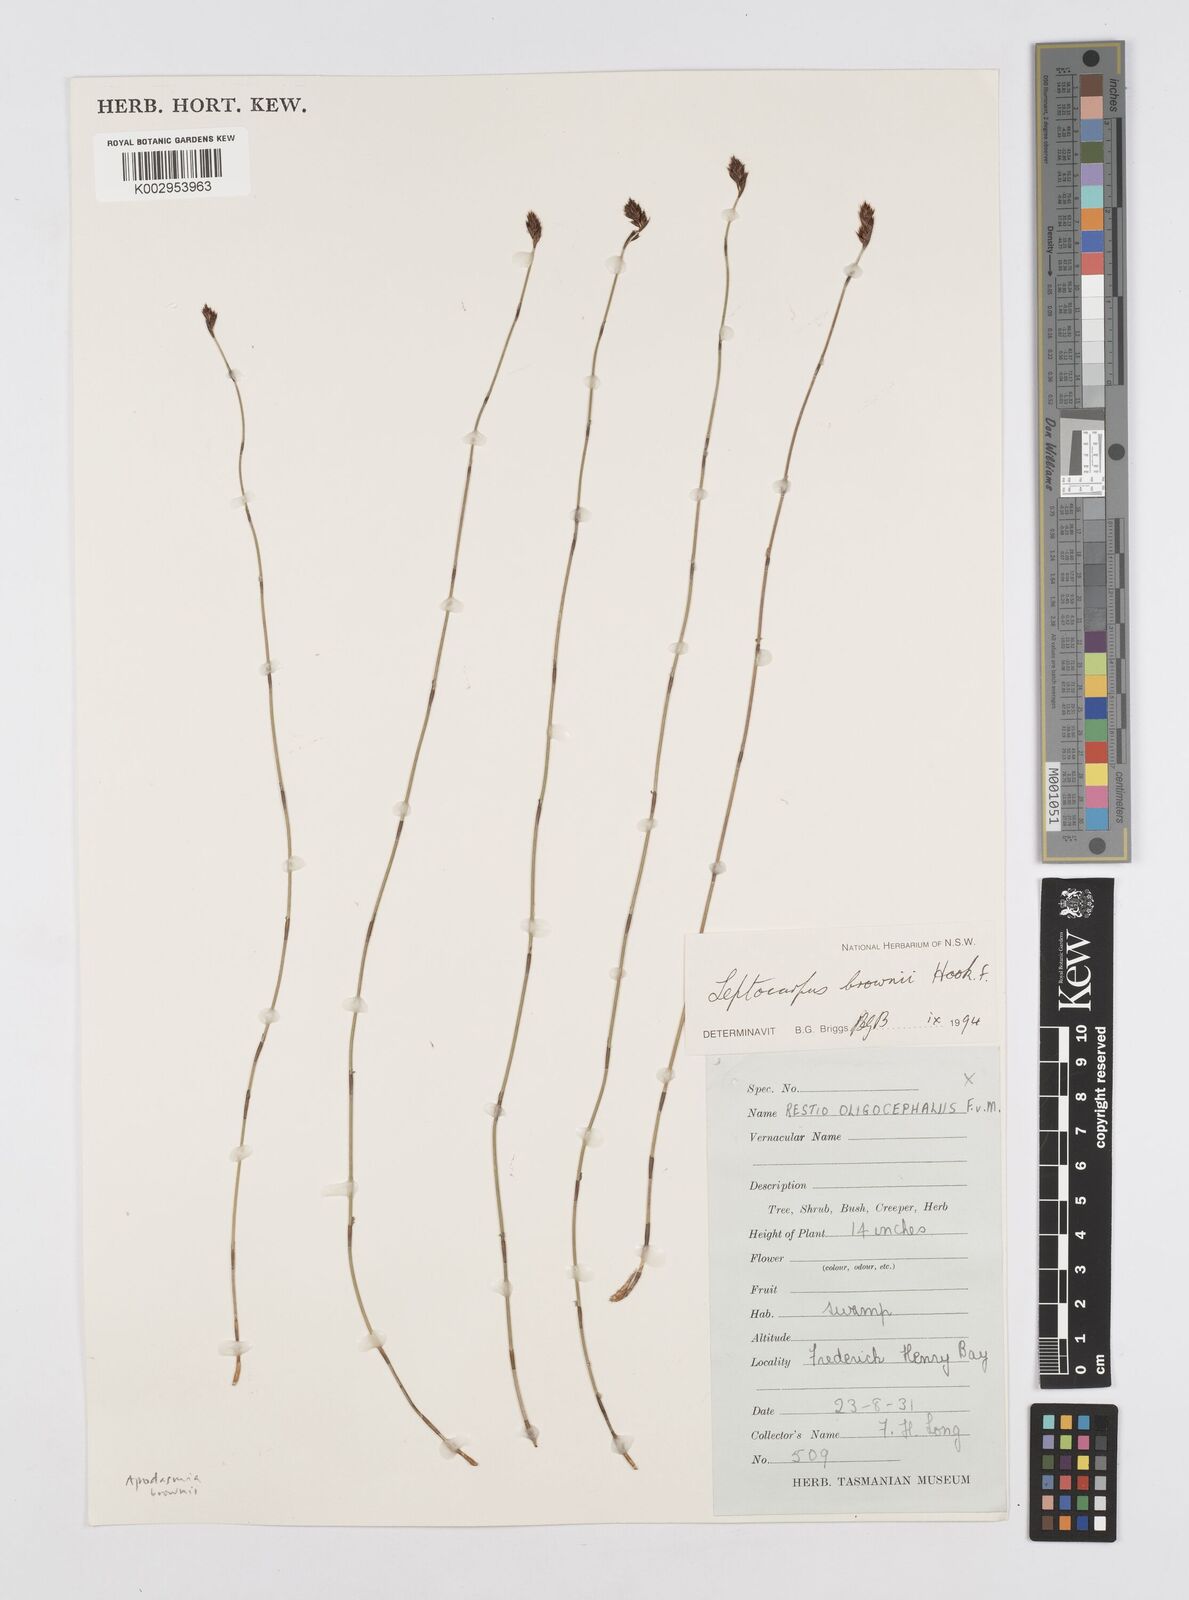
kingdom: Plantae
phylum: Tracheophyta
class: Liliopsida
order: Poales
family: Restionaceae
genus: Apodasmia
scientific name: Apodasmia brownii
